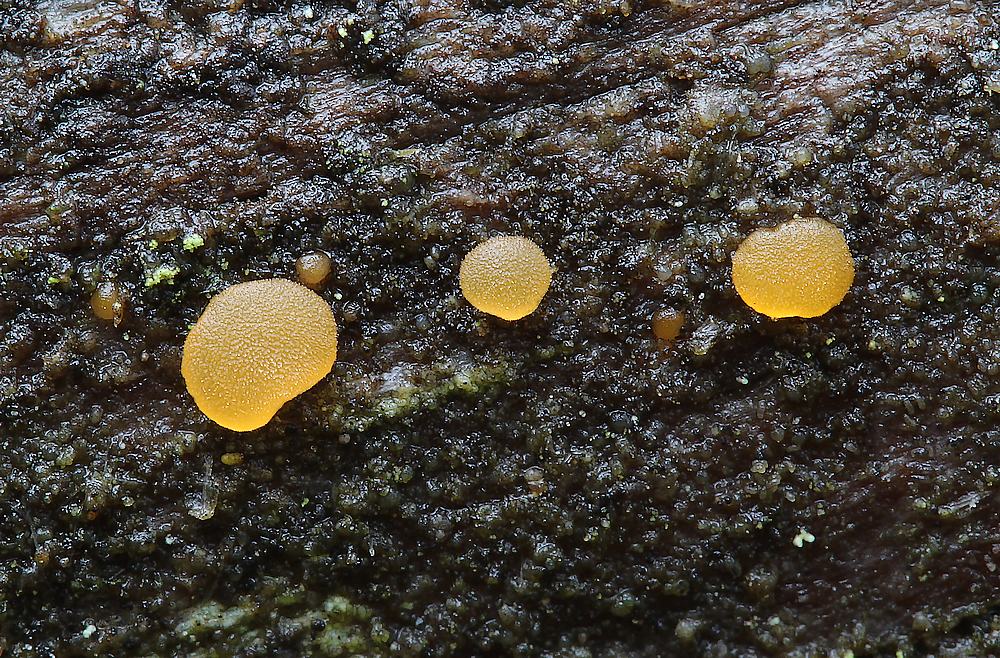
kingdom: Fungi
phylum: Basidiomycota
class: Dacrymycetes
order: Dacrymycetales
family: Dacrymycetaceae
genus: Dacrymyces
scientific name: Dacrymyces
